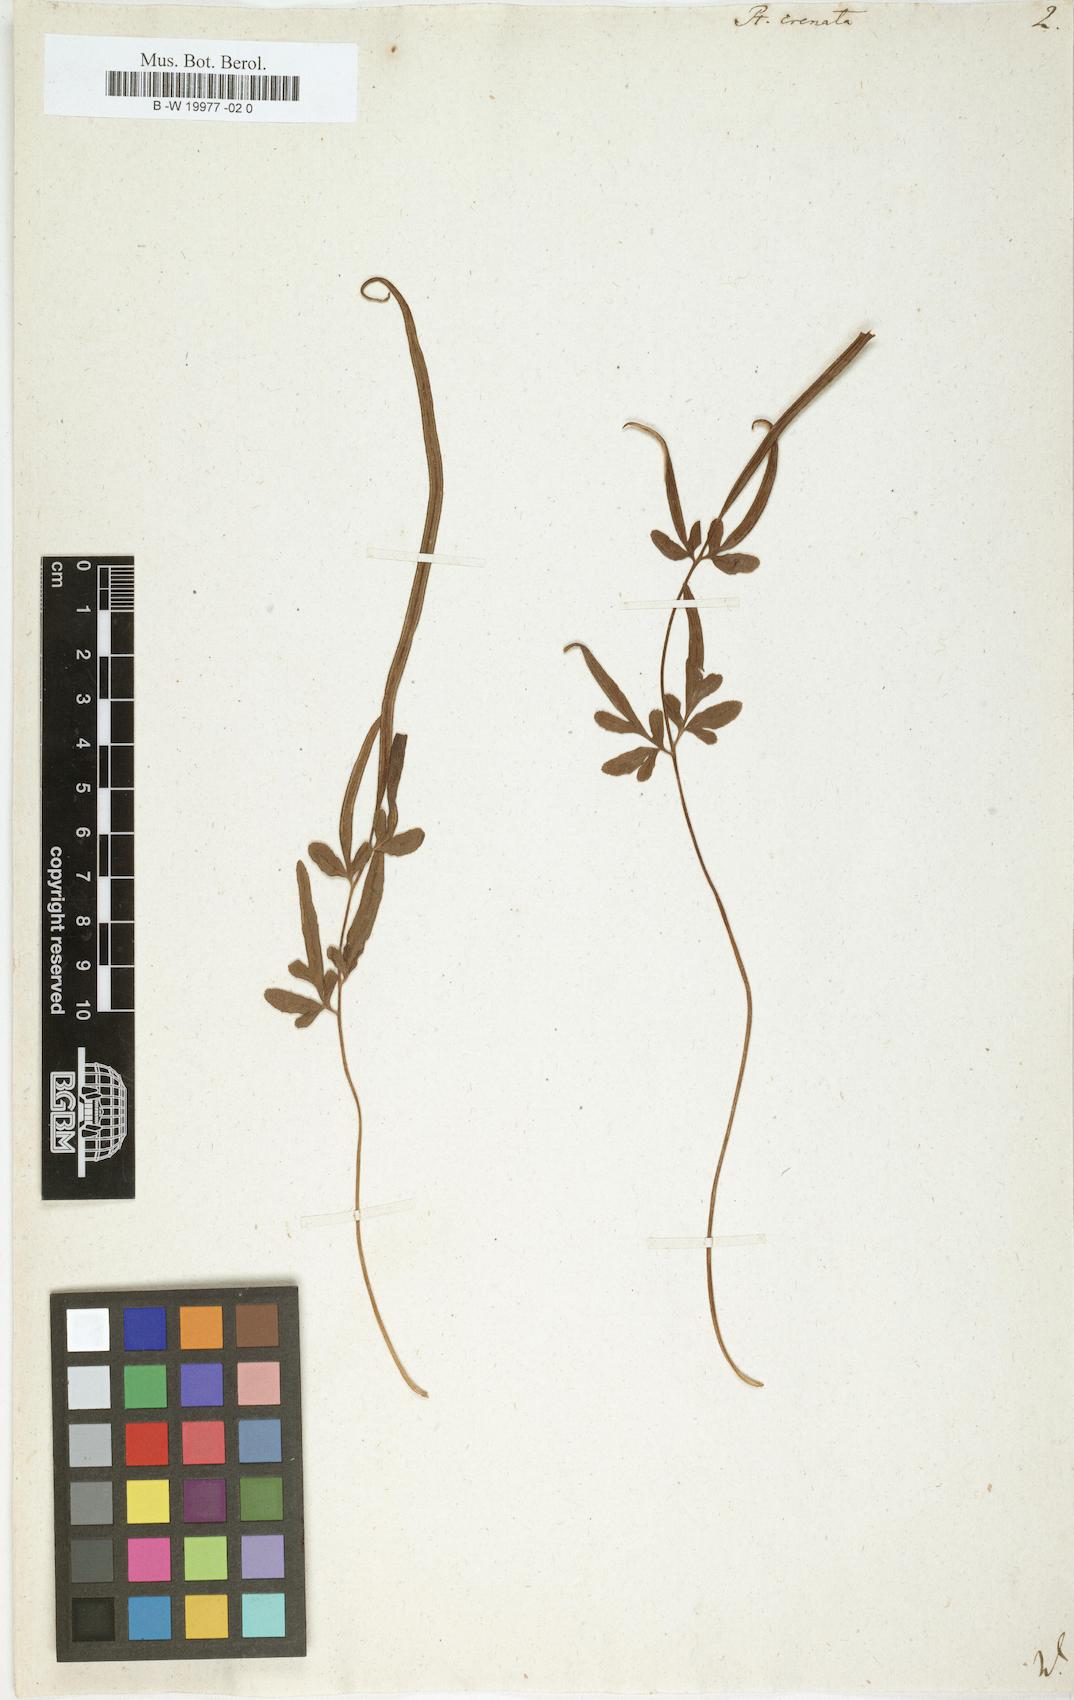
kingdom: Plantae
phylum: Tracheophyta
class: Polypodiopsida
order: Polypodiales
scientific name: Polypodiales
